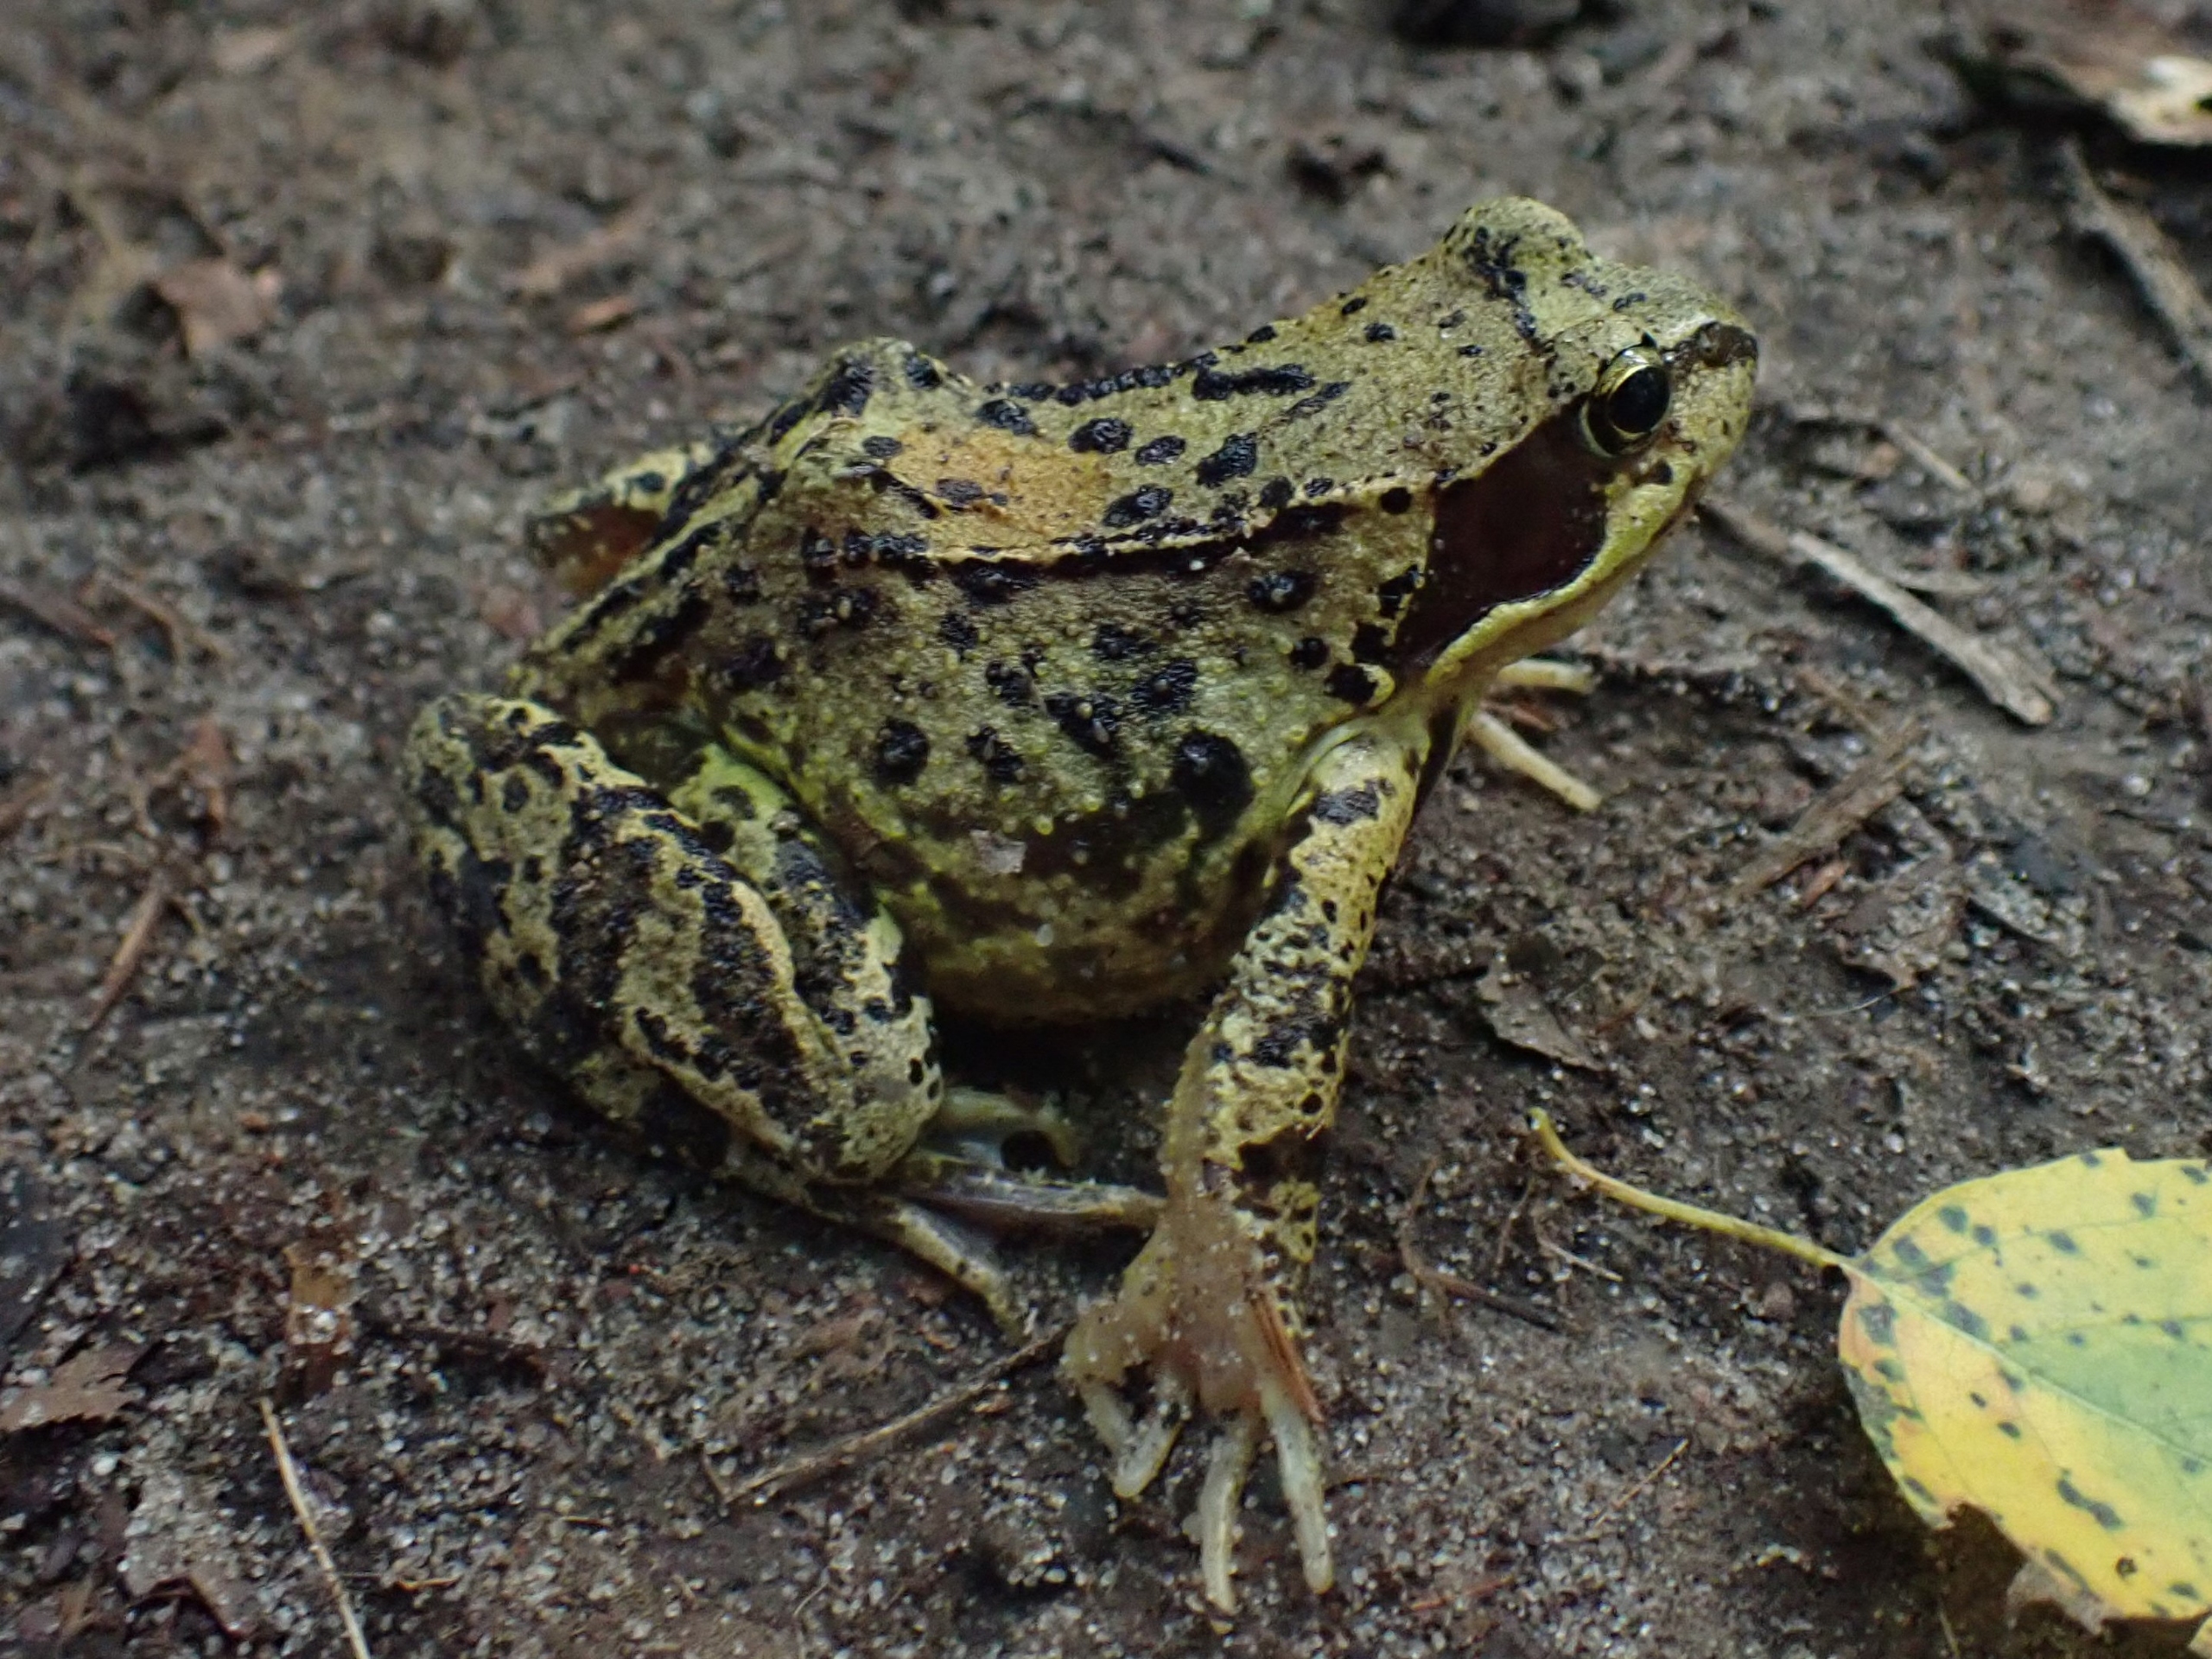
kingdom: Animalia
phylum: Chordata
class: Amphibia
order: Anura
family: Ranidae
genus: Rana
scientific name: Rana temporaria
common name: Butsnudet frø
